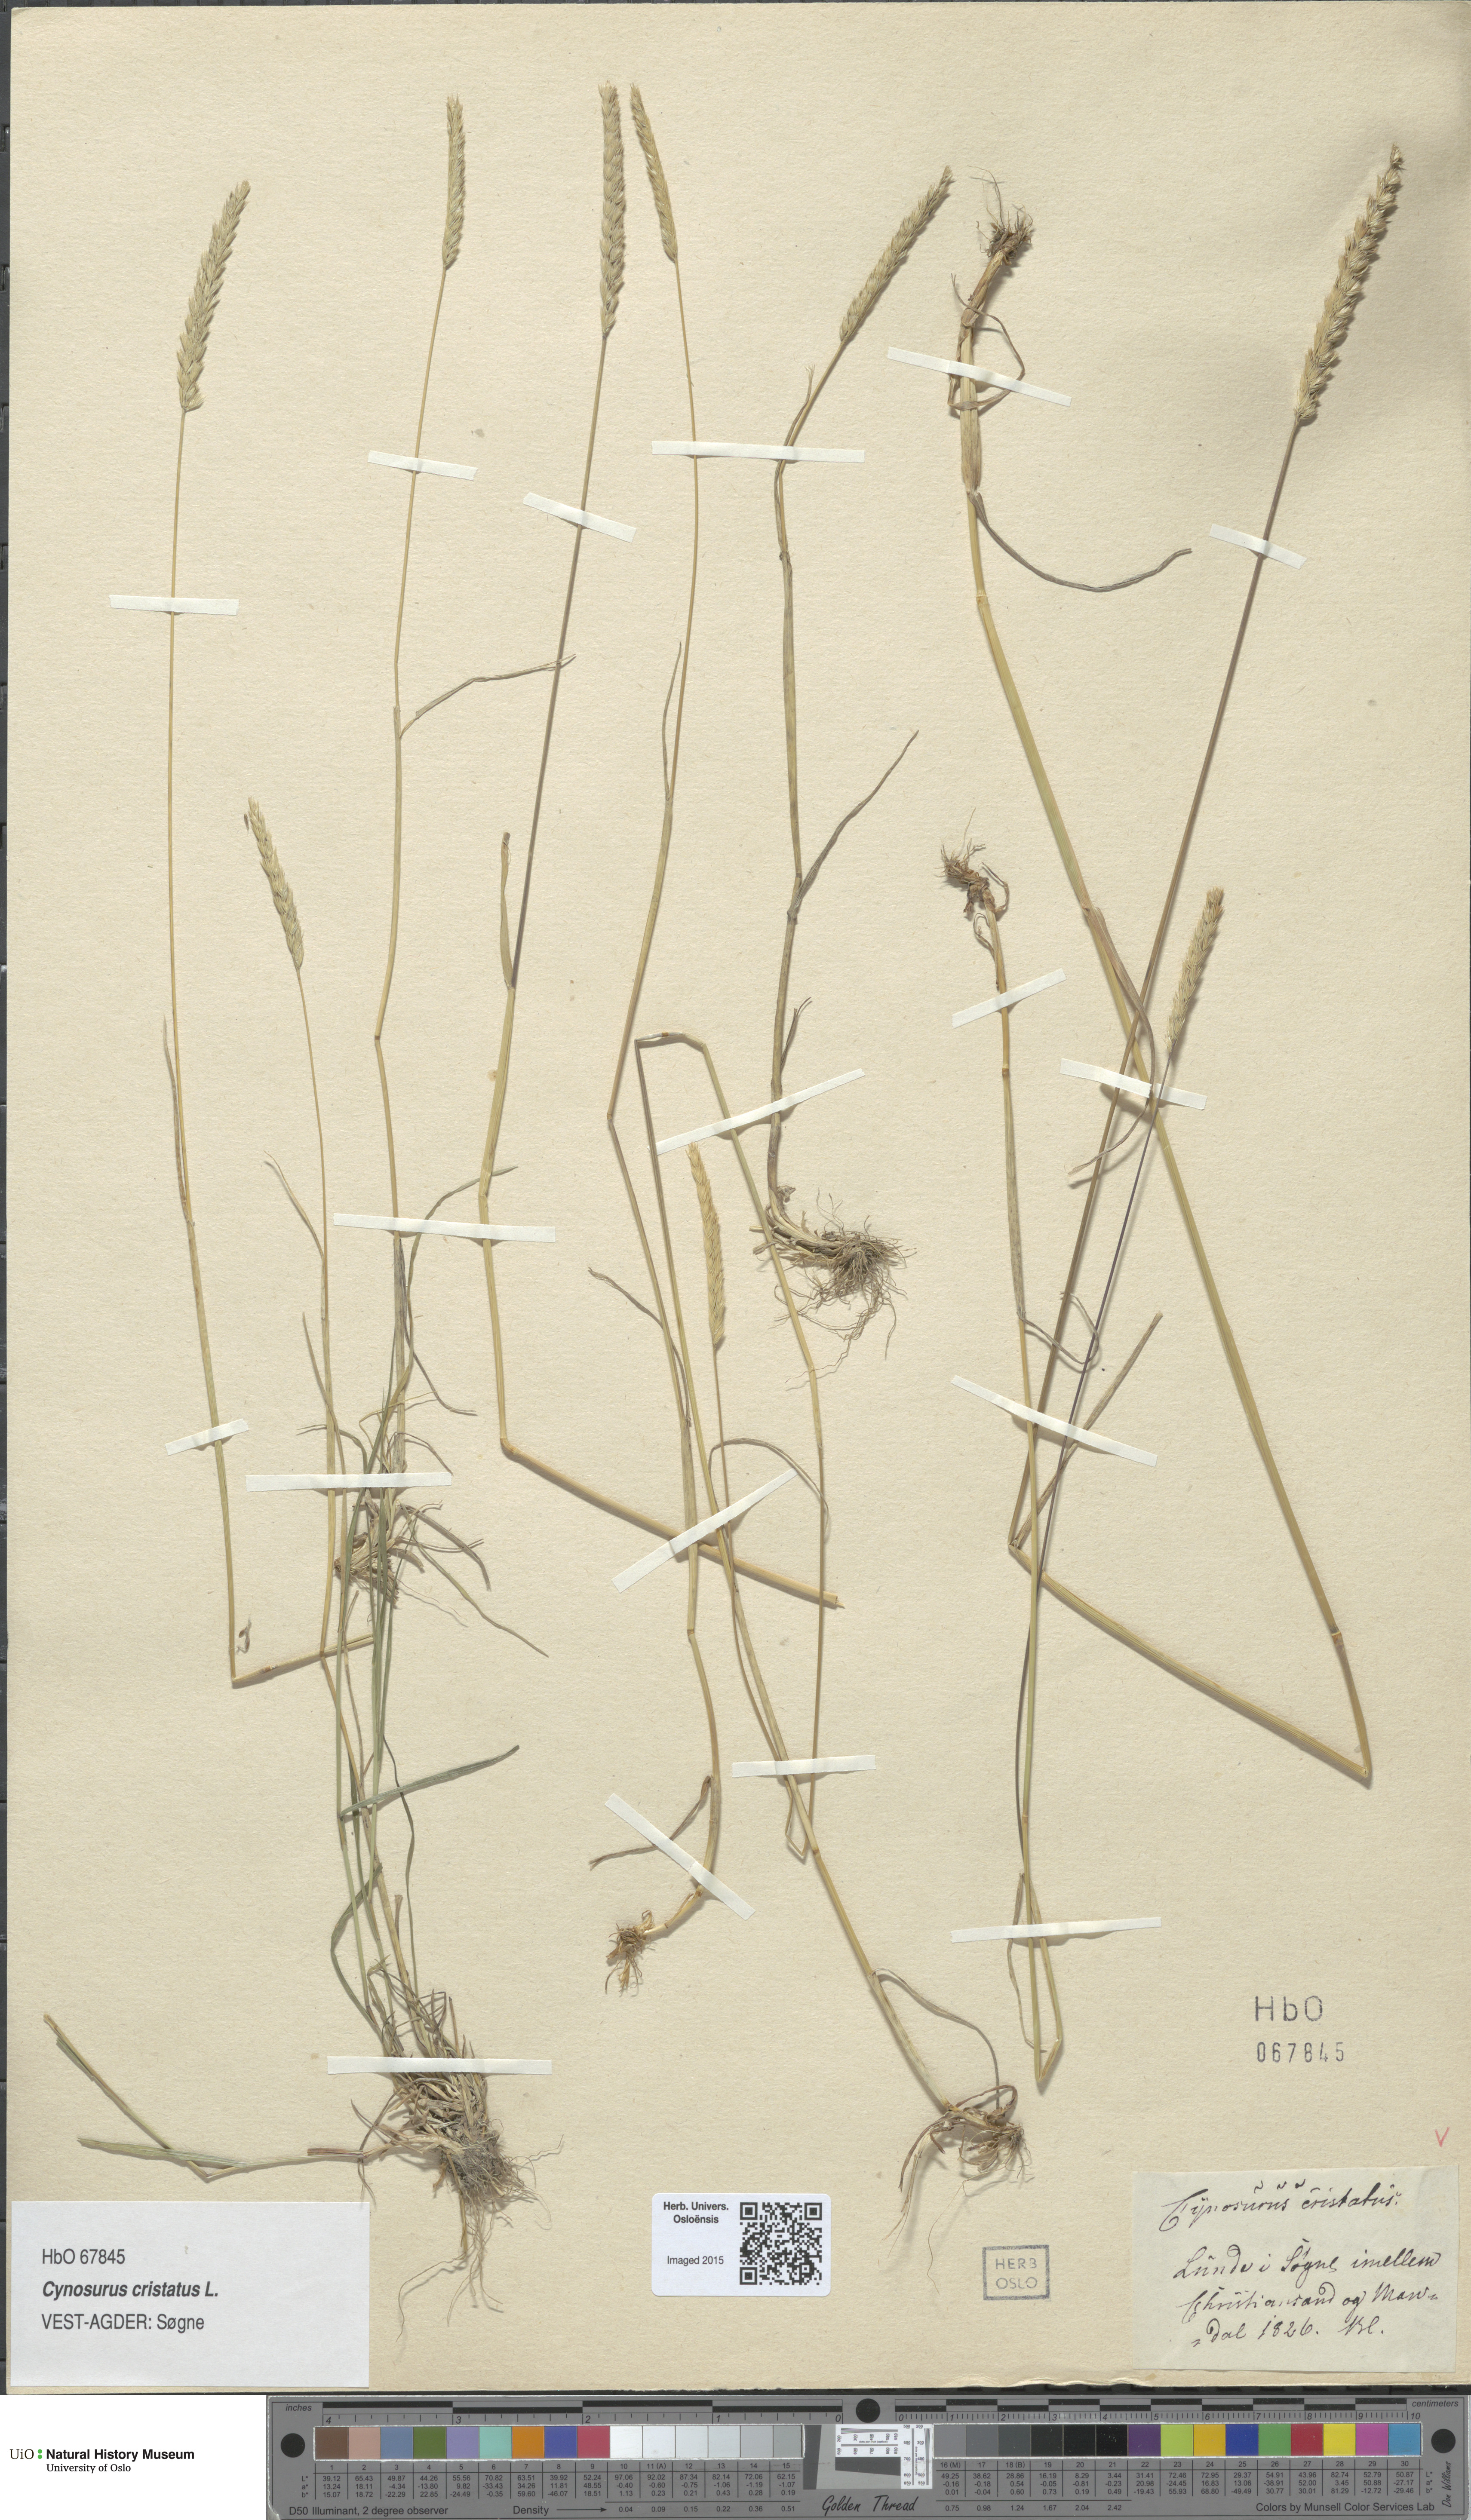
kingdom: Plantae
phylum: Tracheophyta
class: Liliopsida
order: Poales
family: Poaceae
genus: Cynosurus
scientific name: Cynosurus cristatus
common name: Crested dog's-tail
